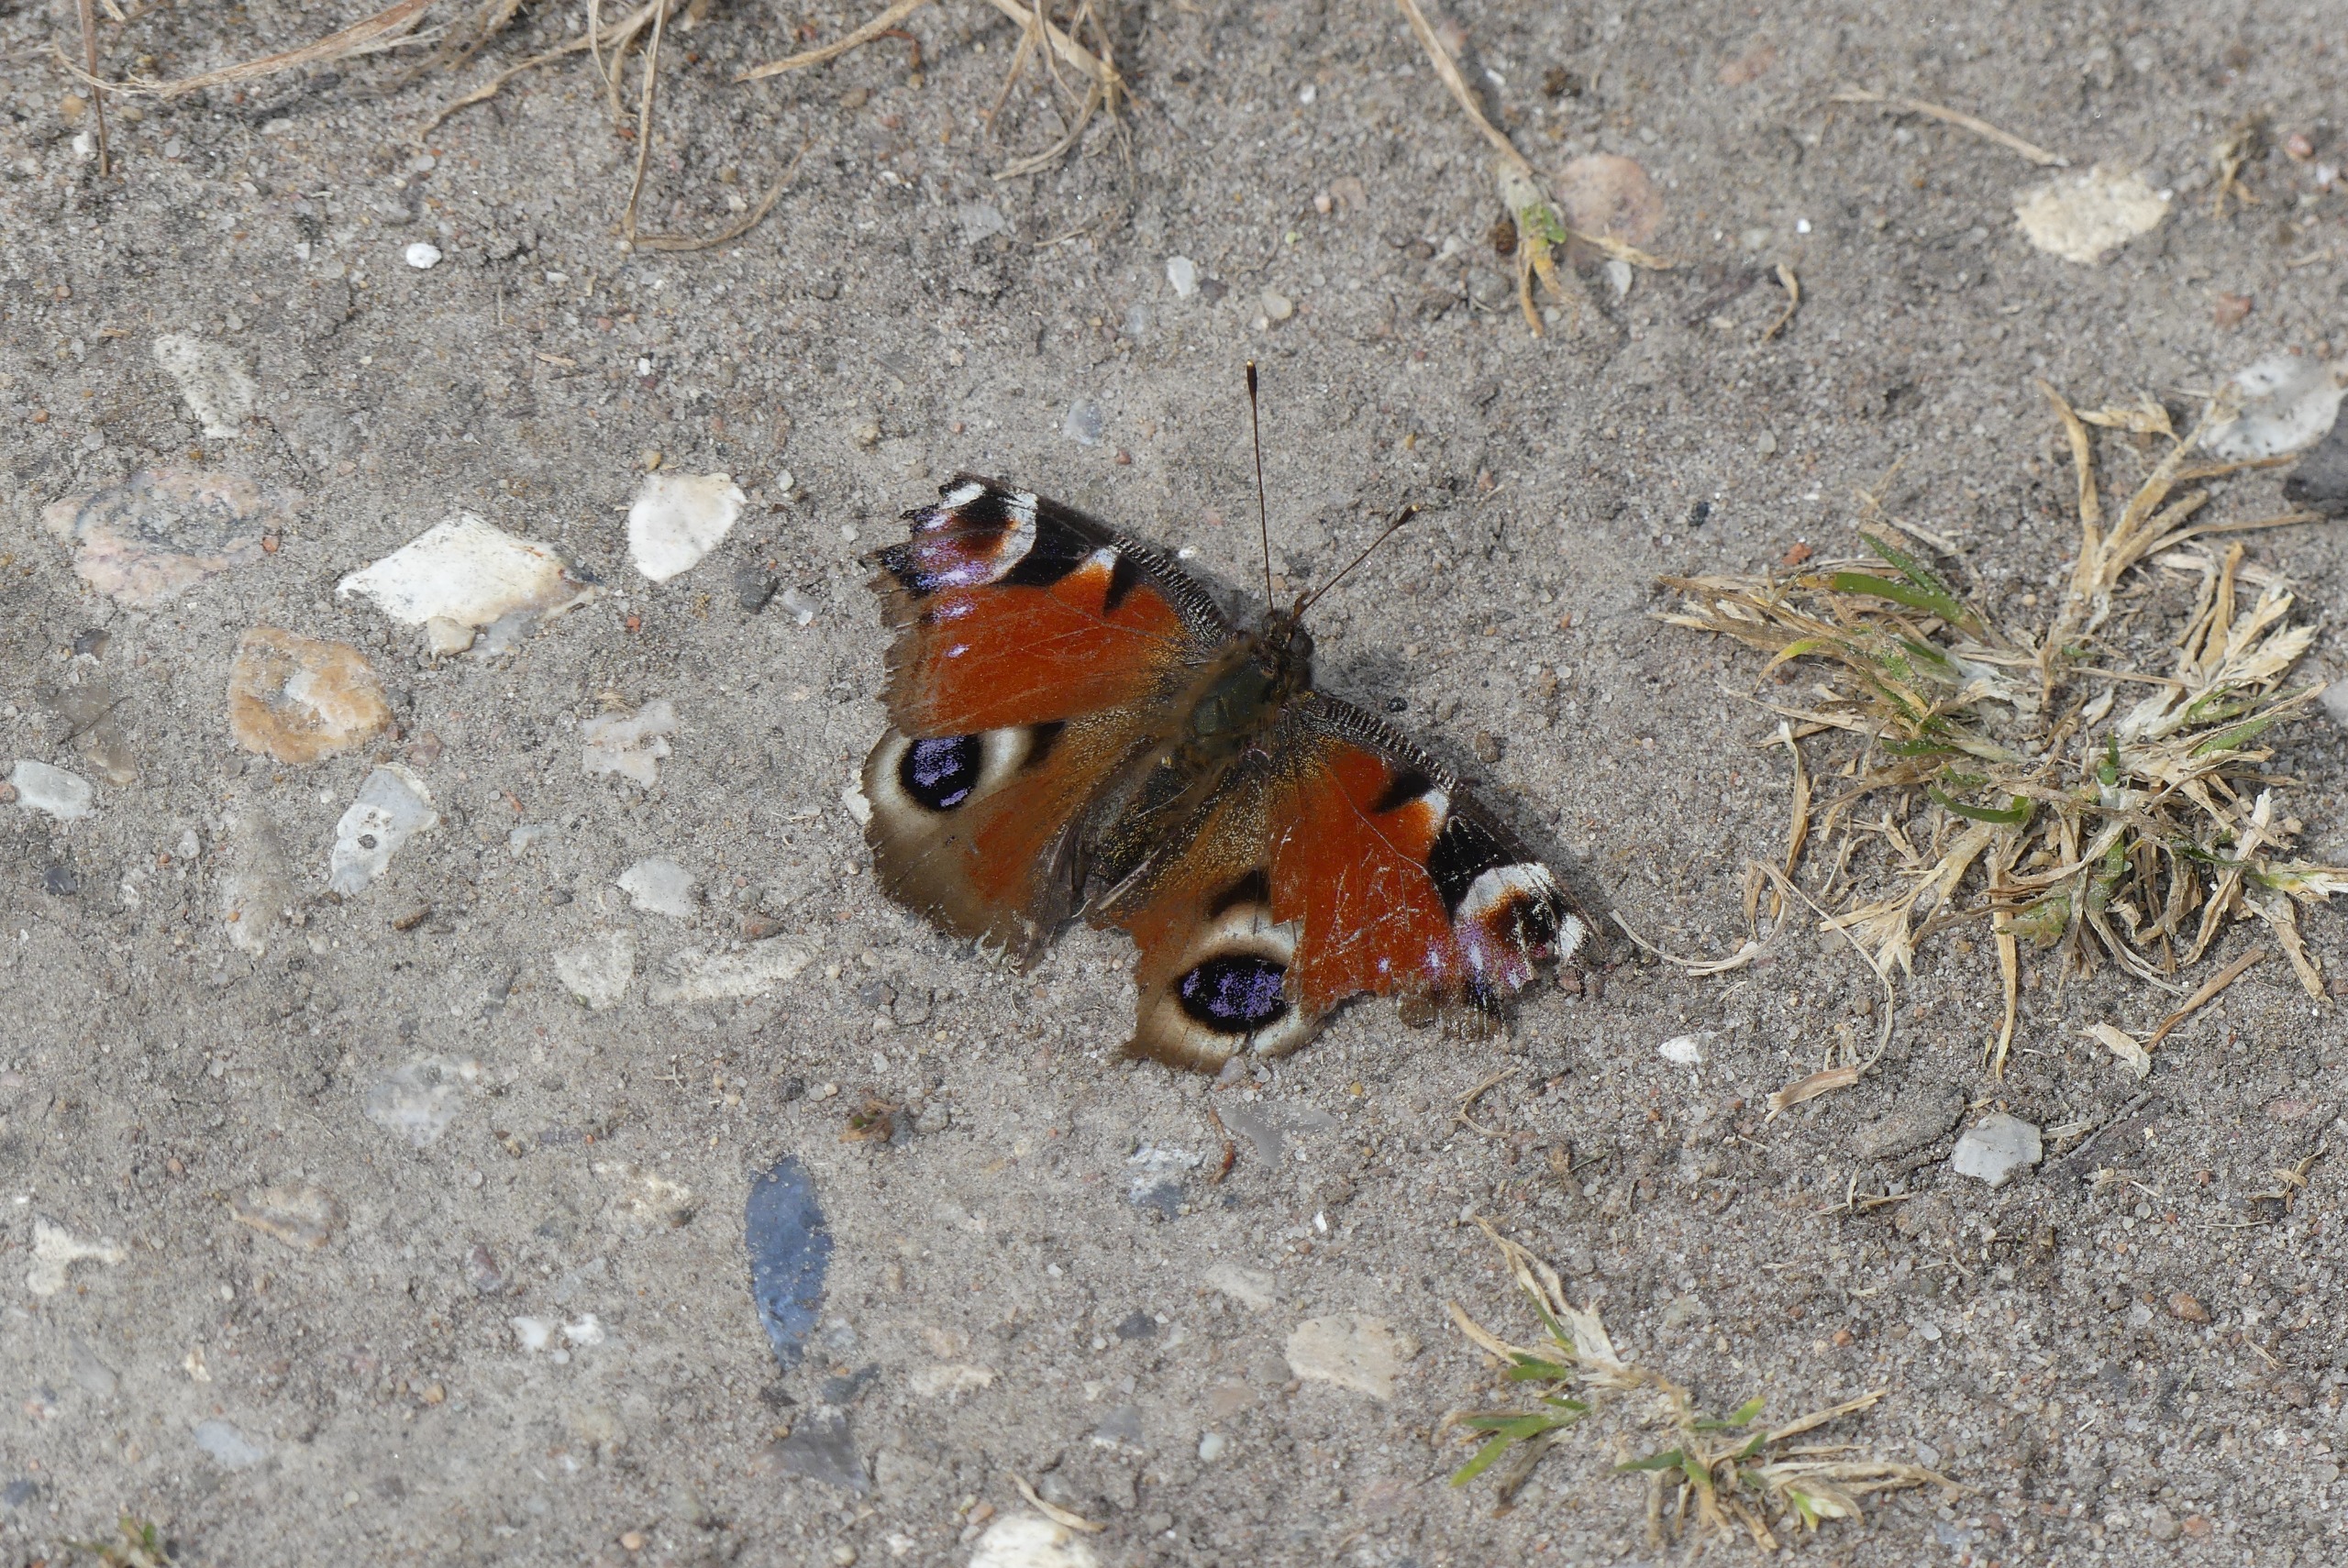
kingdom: Animalia
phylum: Arthropoda
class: Insecta
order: Lepidoptera
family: Nymphalidae
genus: Aglais
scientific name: Aglais io
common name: Dagpåfugleøje
